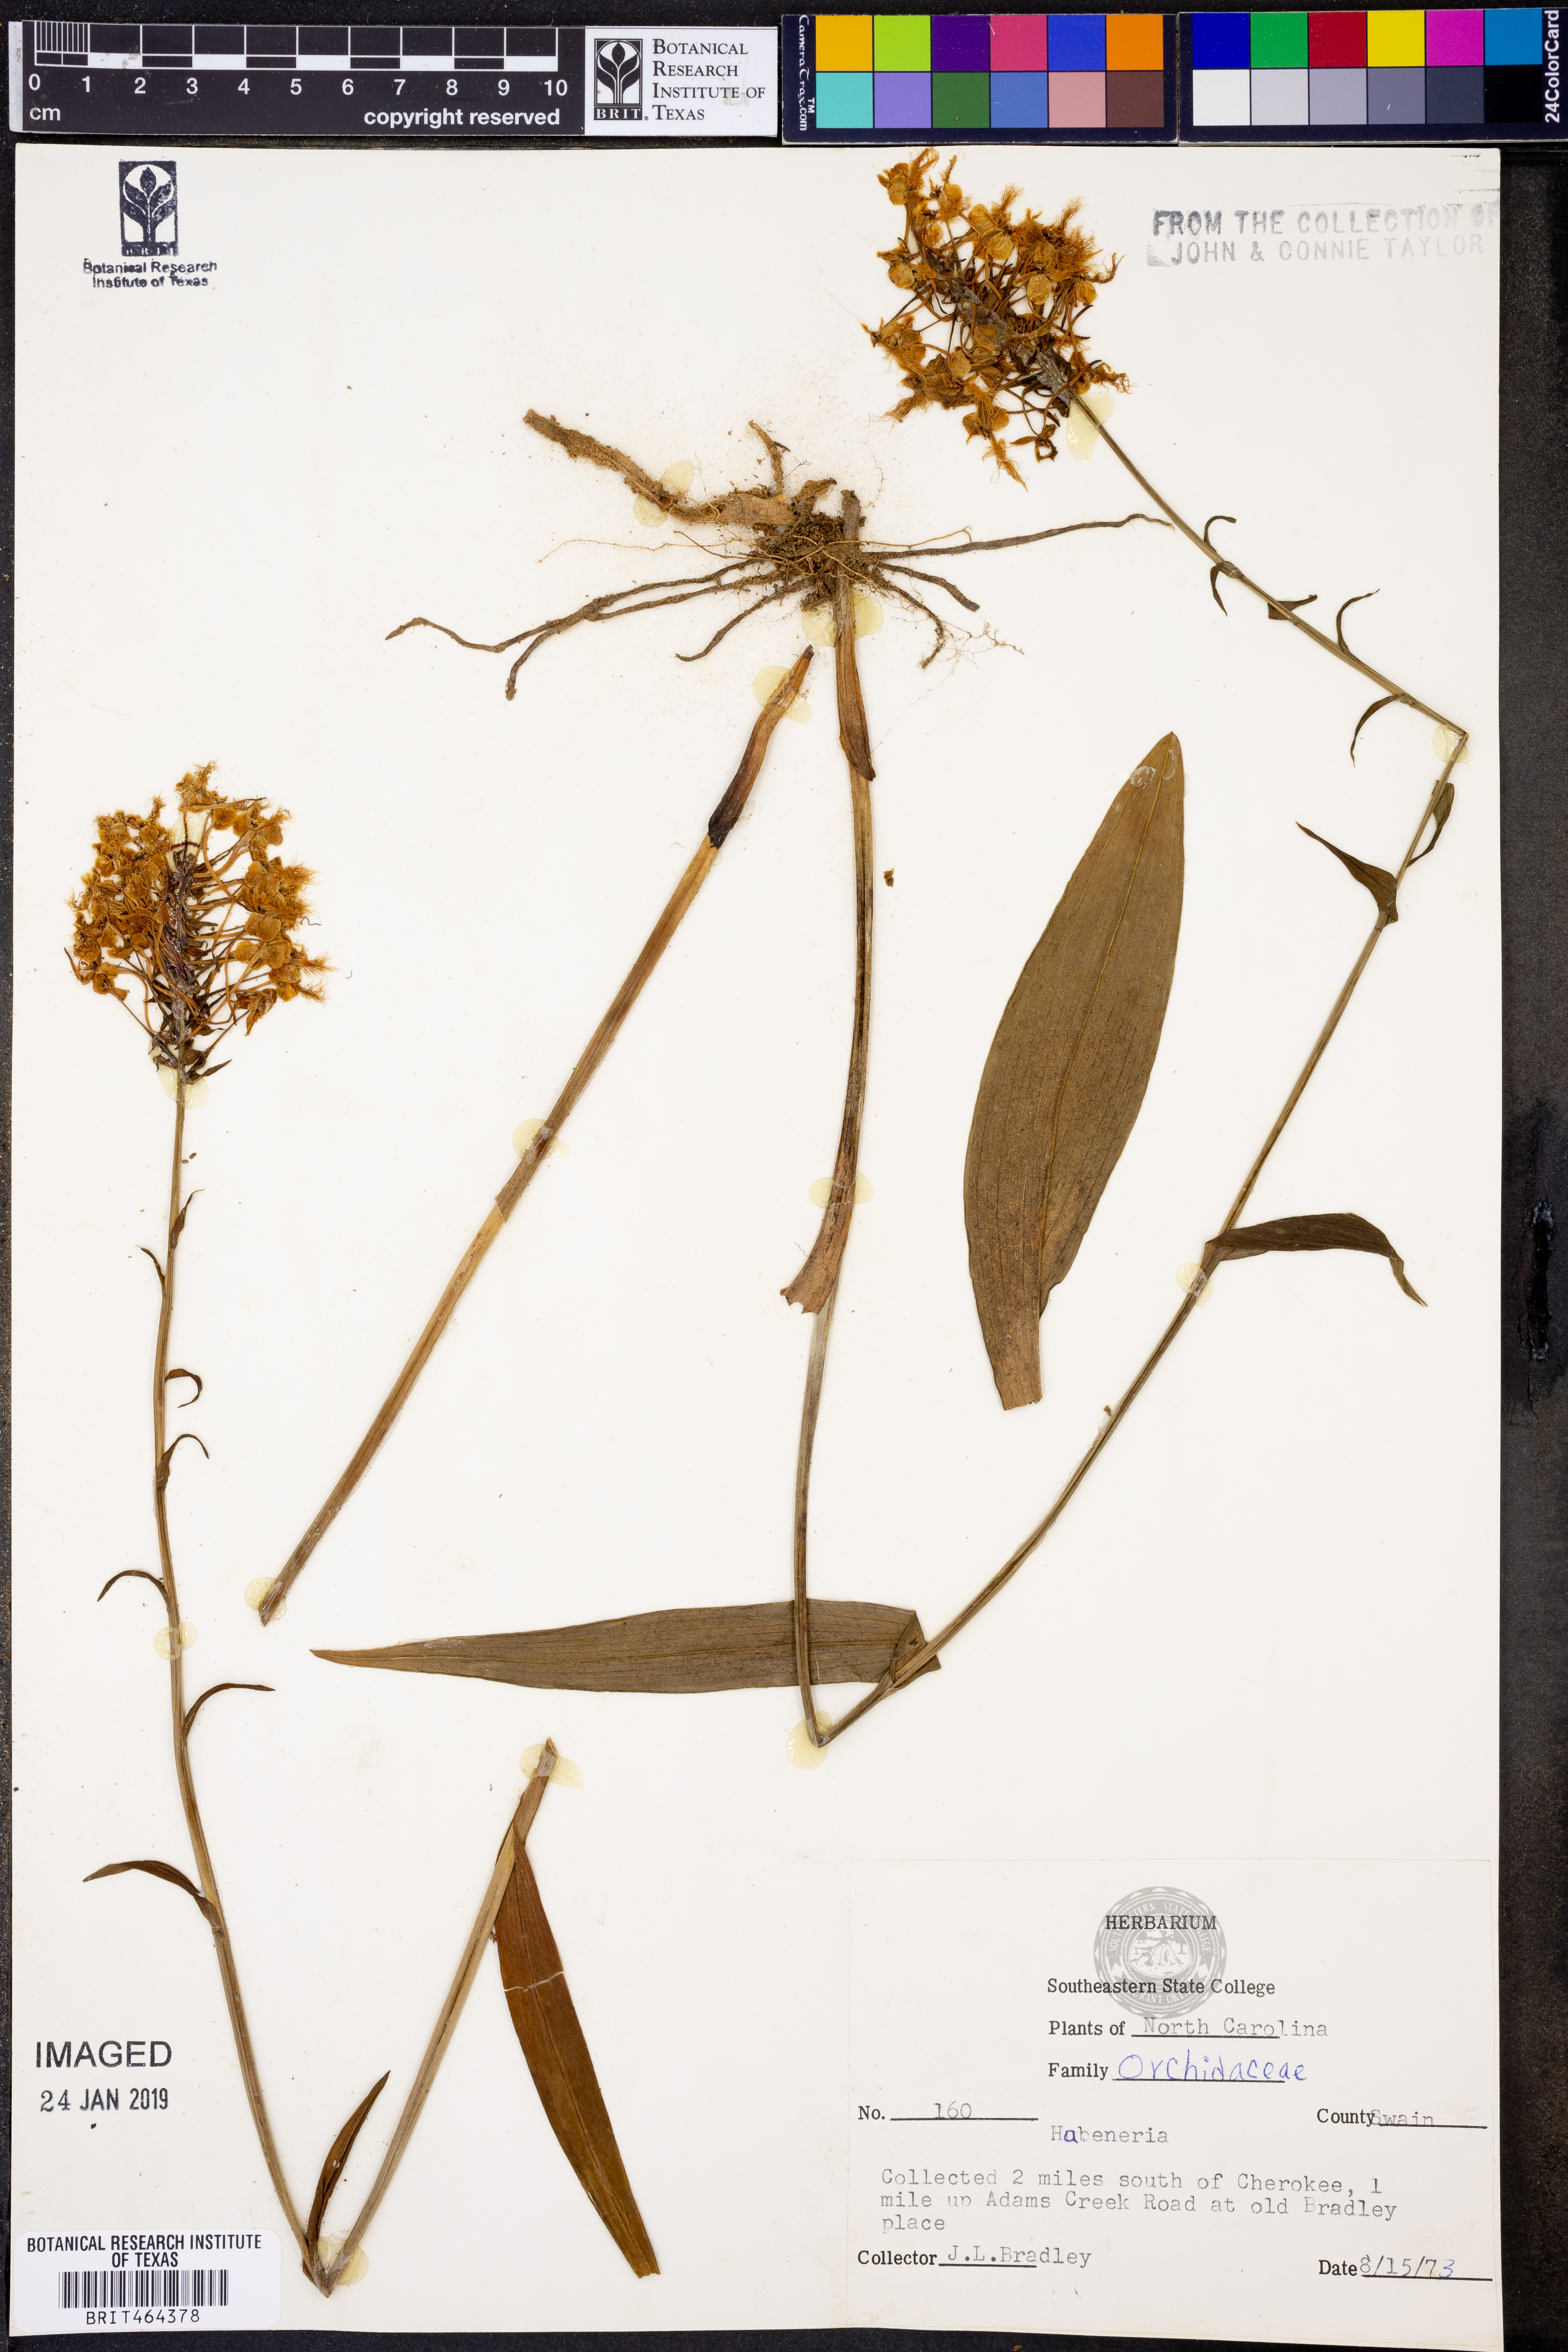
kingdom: Plantae
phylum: Tracheophyta
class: Liliopsida
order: Asparagales
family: Orchidaceae
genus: Habenaria
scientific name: Habenaria
